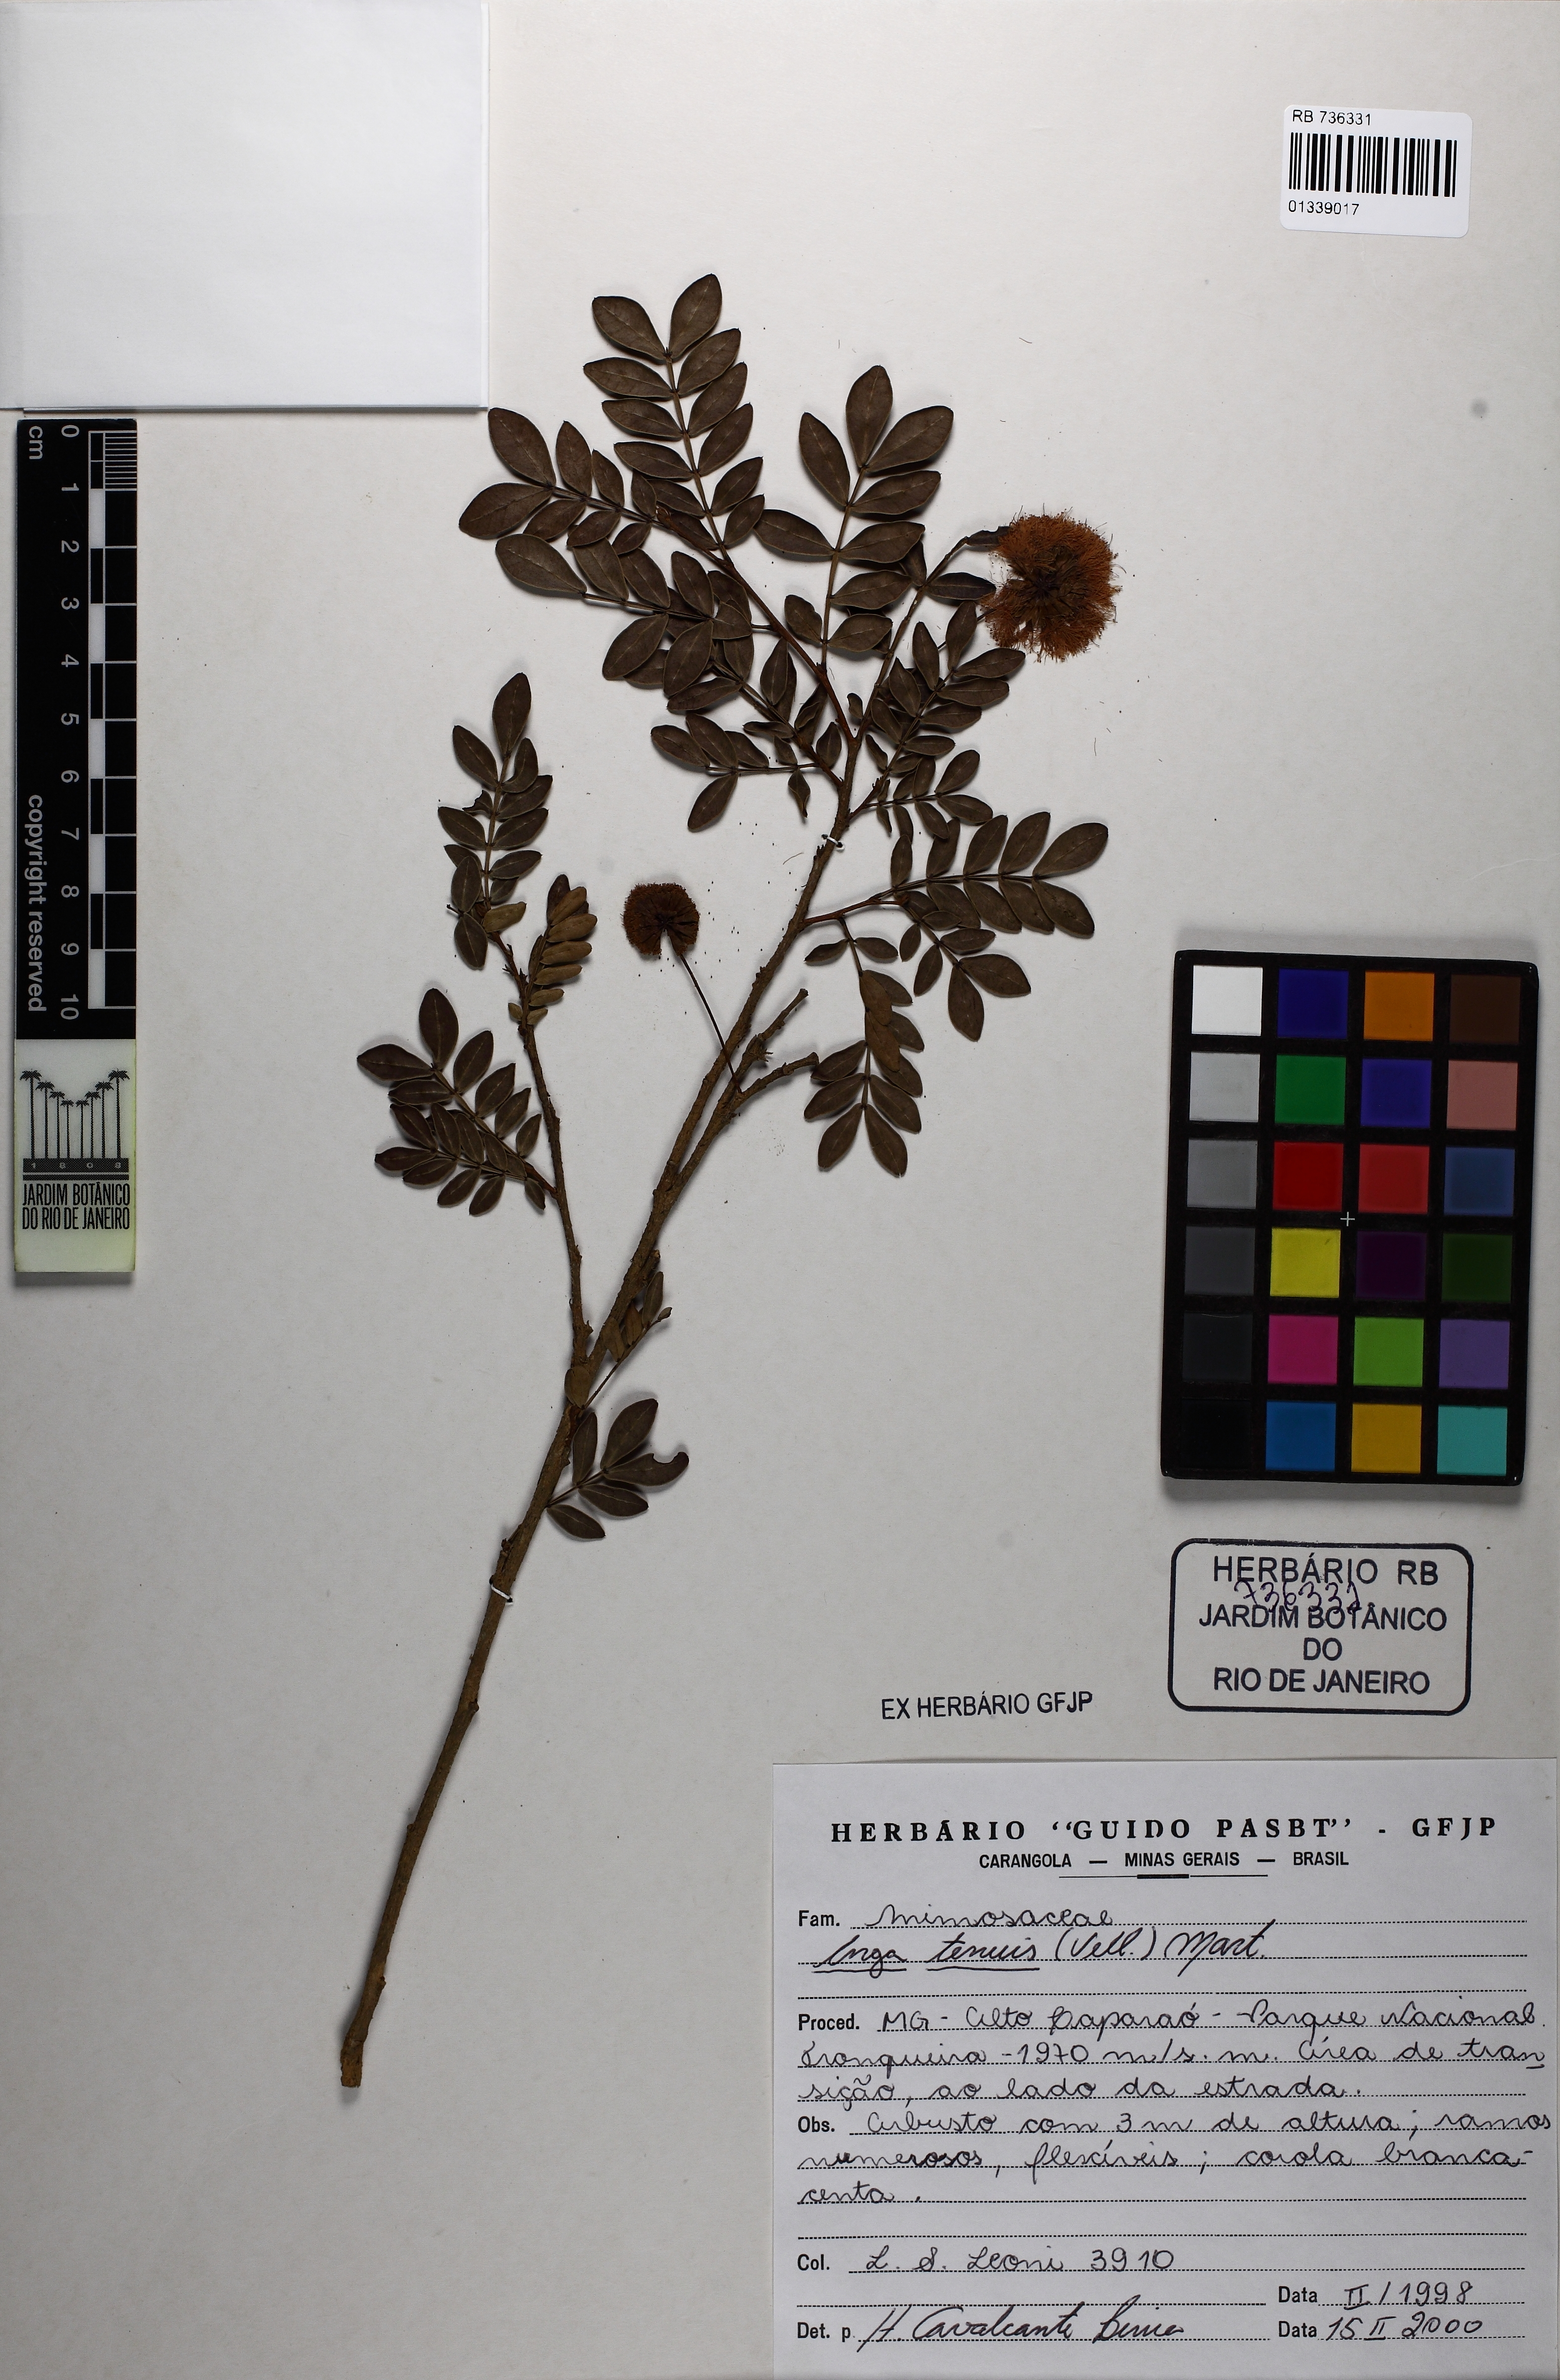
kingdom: Plantae
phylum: Tracheophyta
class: Magnoliopsida
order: Fabales
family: Fabaceae
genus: Inga
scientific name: Inga tenuis
